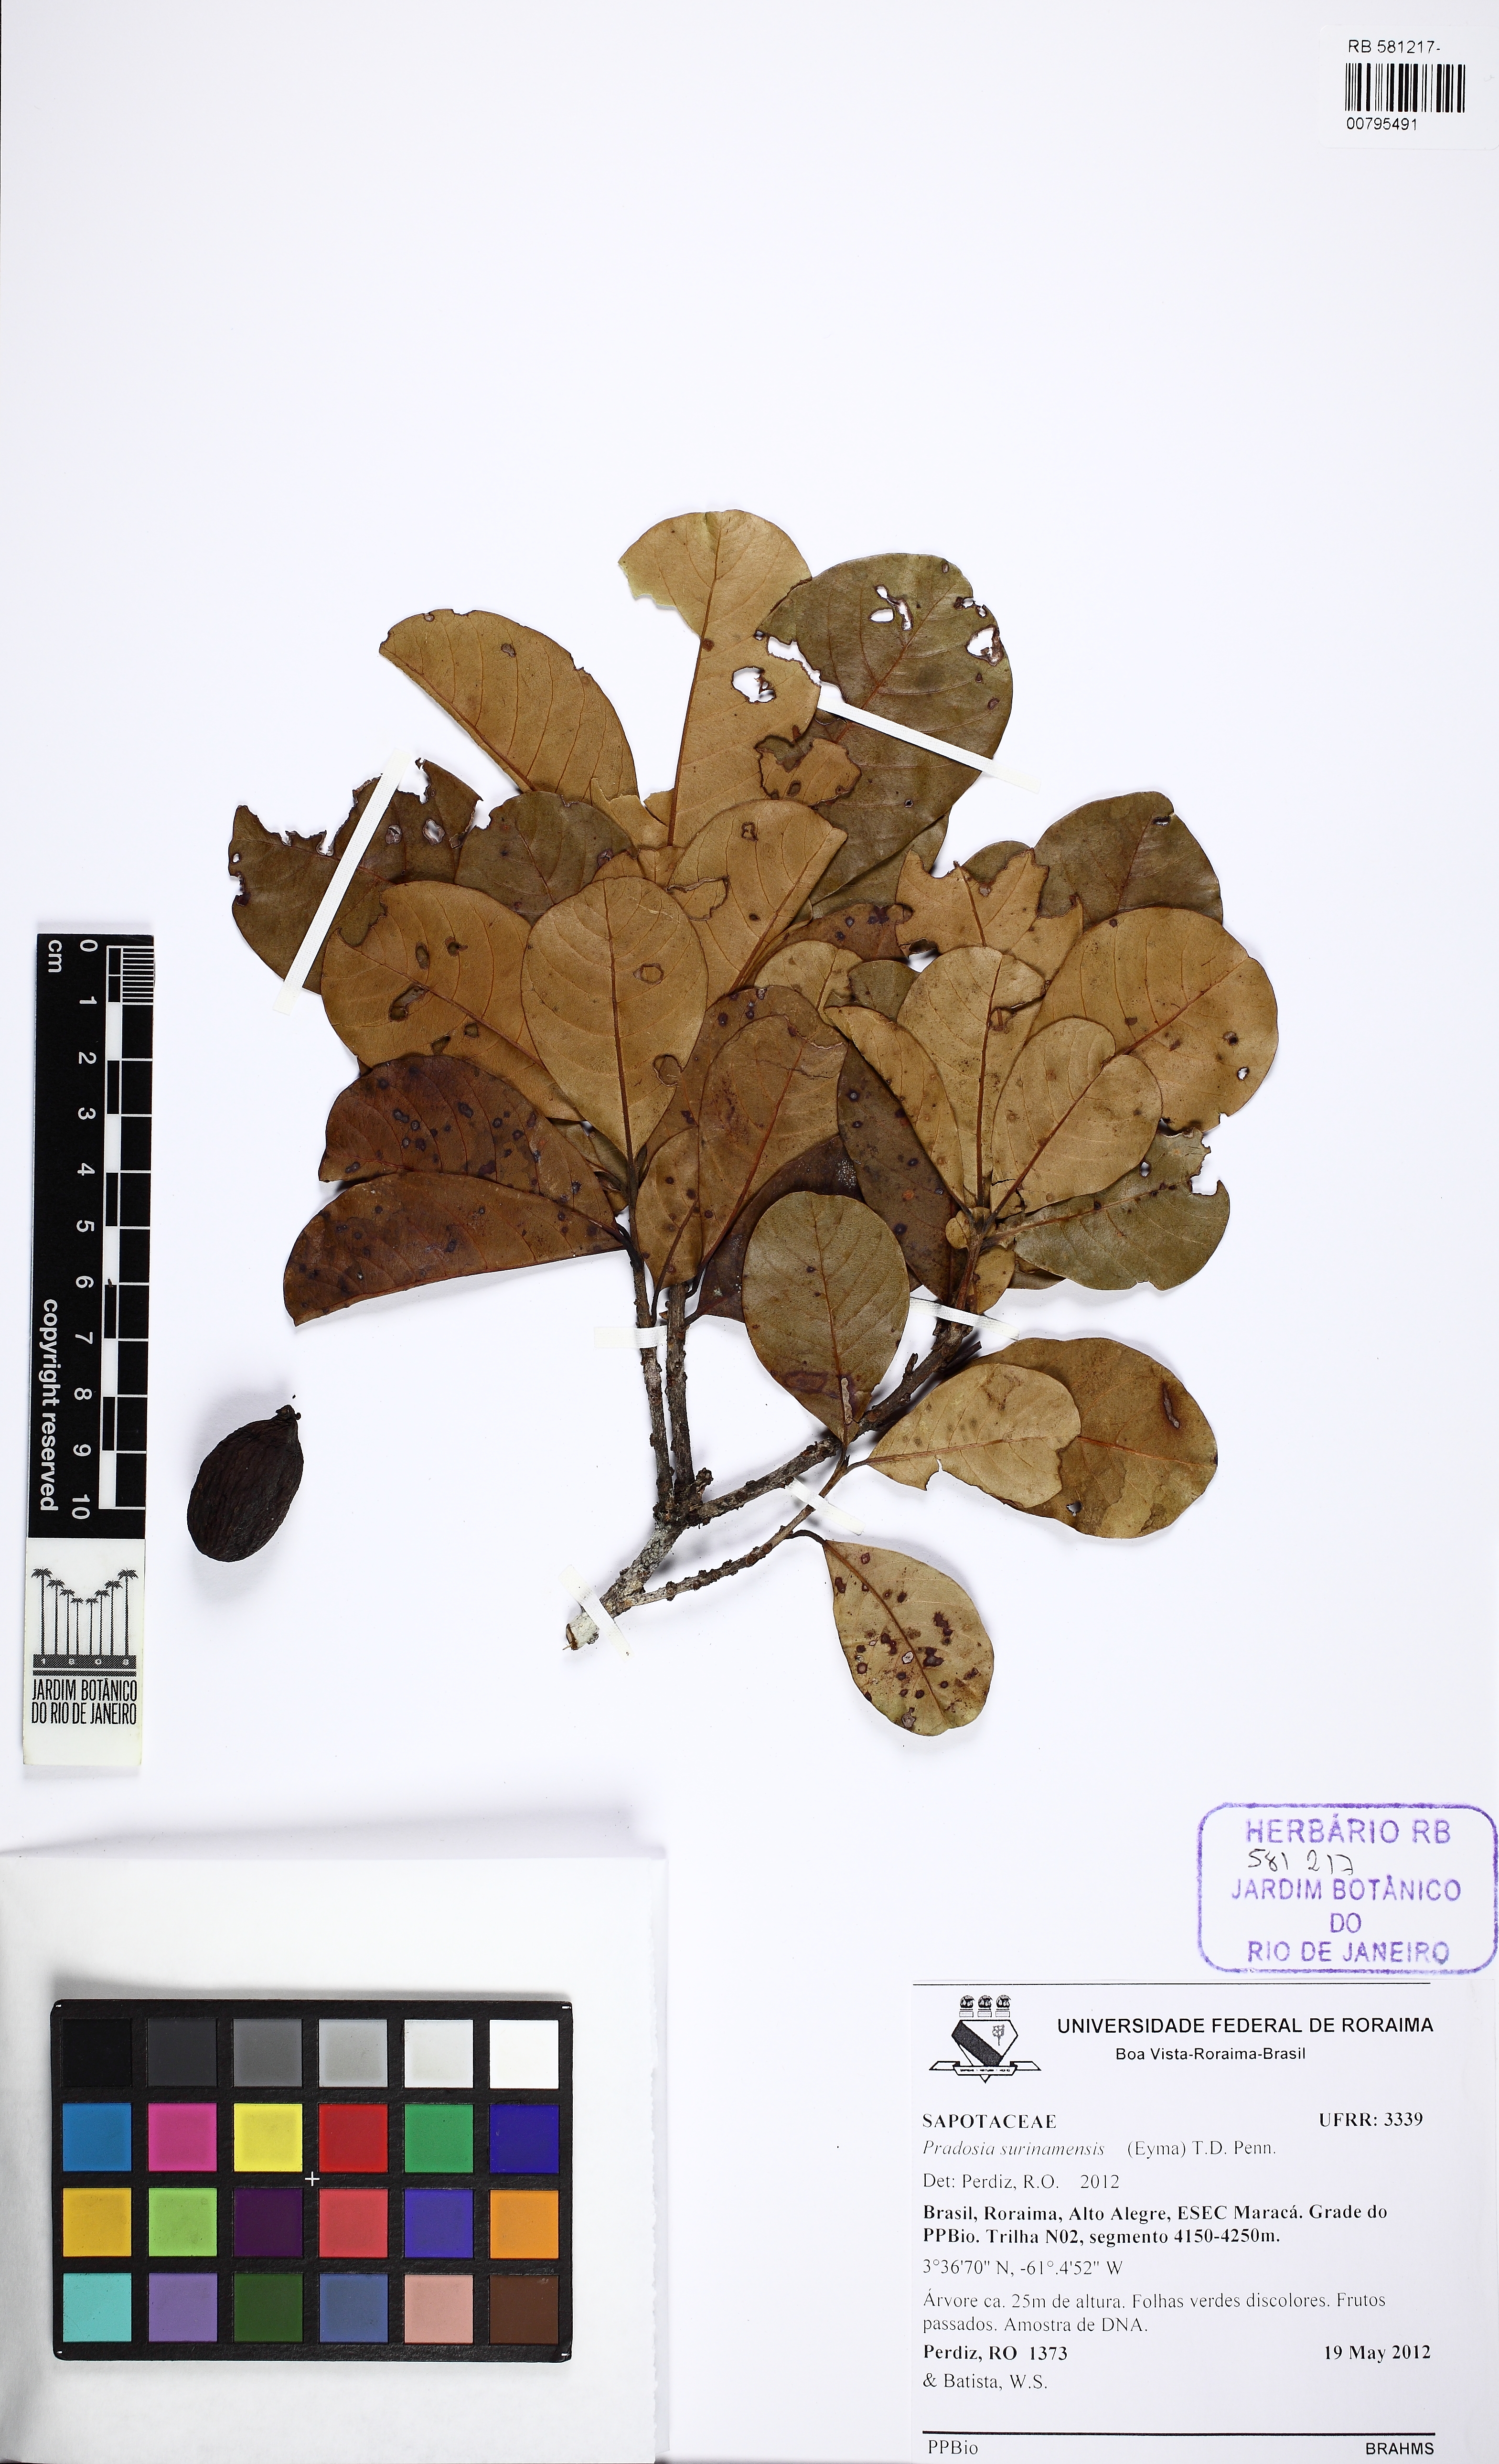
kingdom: Plantae
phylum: Tracheophyta
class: Magnoliopsida
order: Ericales
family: Sapotaceae
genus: Pradosia
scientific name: Pradosia surinamensis
